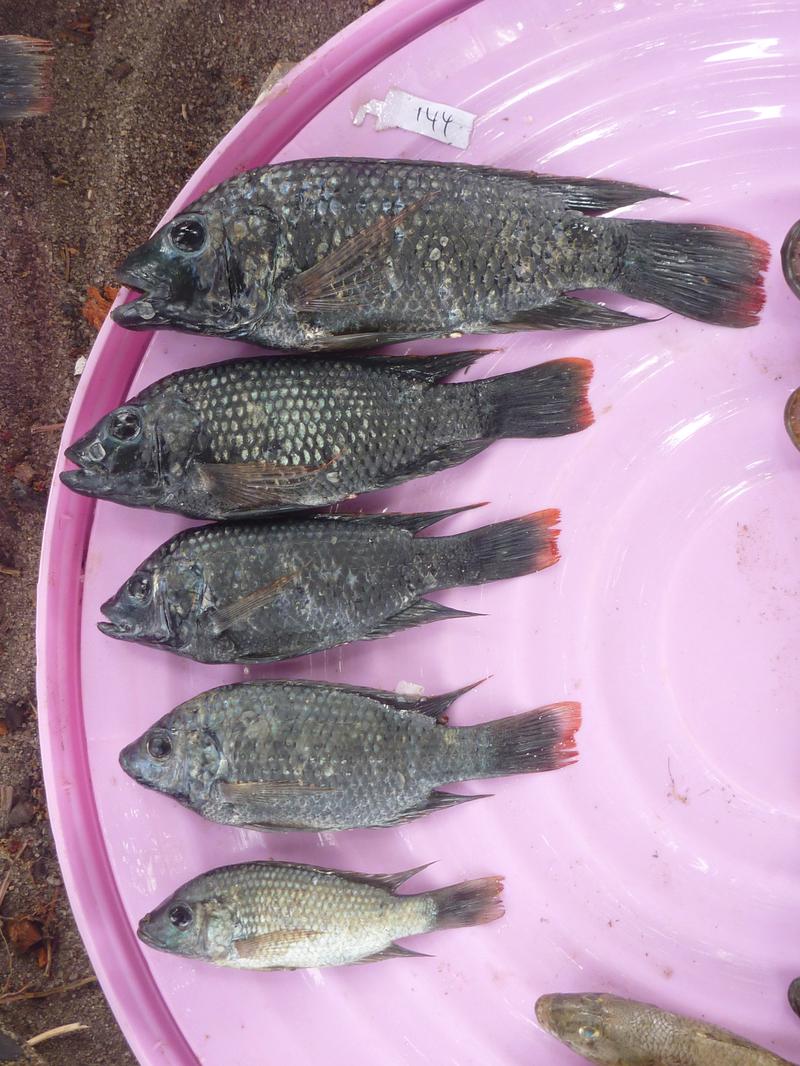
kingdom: Animalia
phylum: Chordata
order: Perciformes
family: Cichlidae
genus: Oreochromis
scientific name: Oreochromis shiranus
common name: Chilwa tilapia
